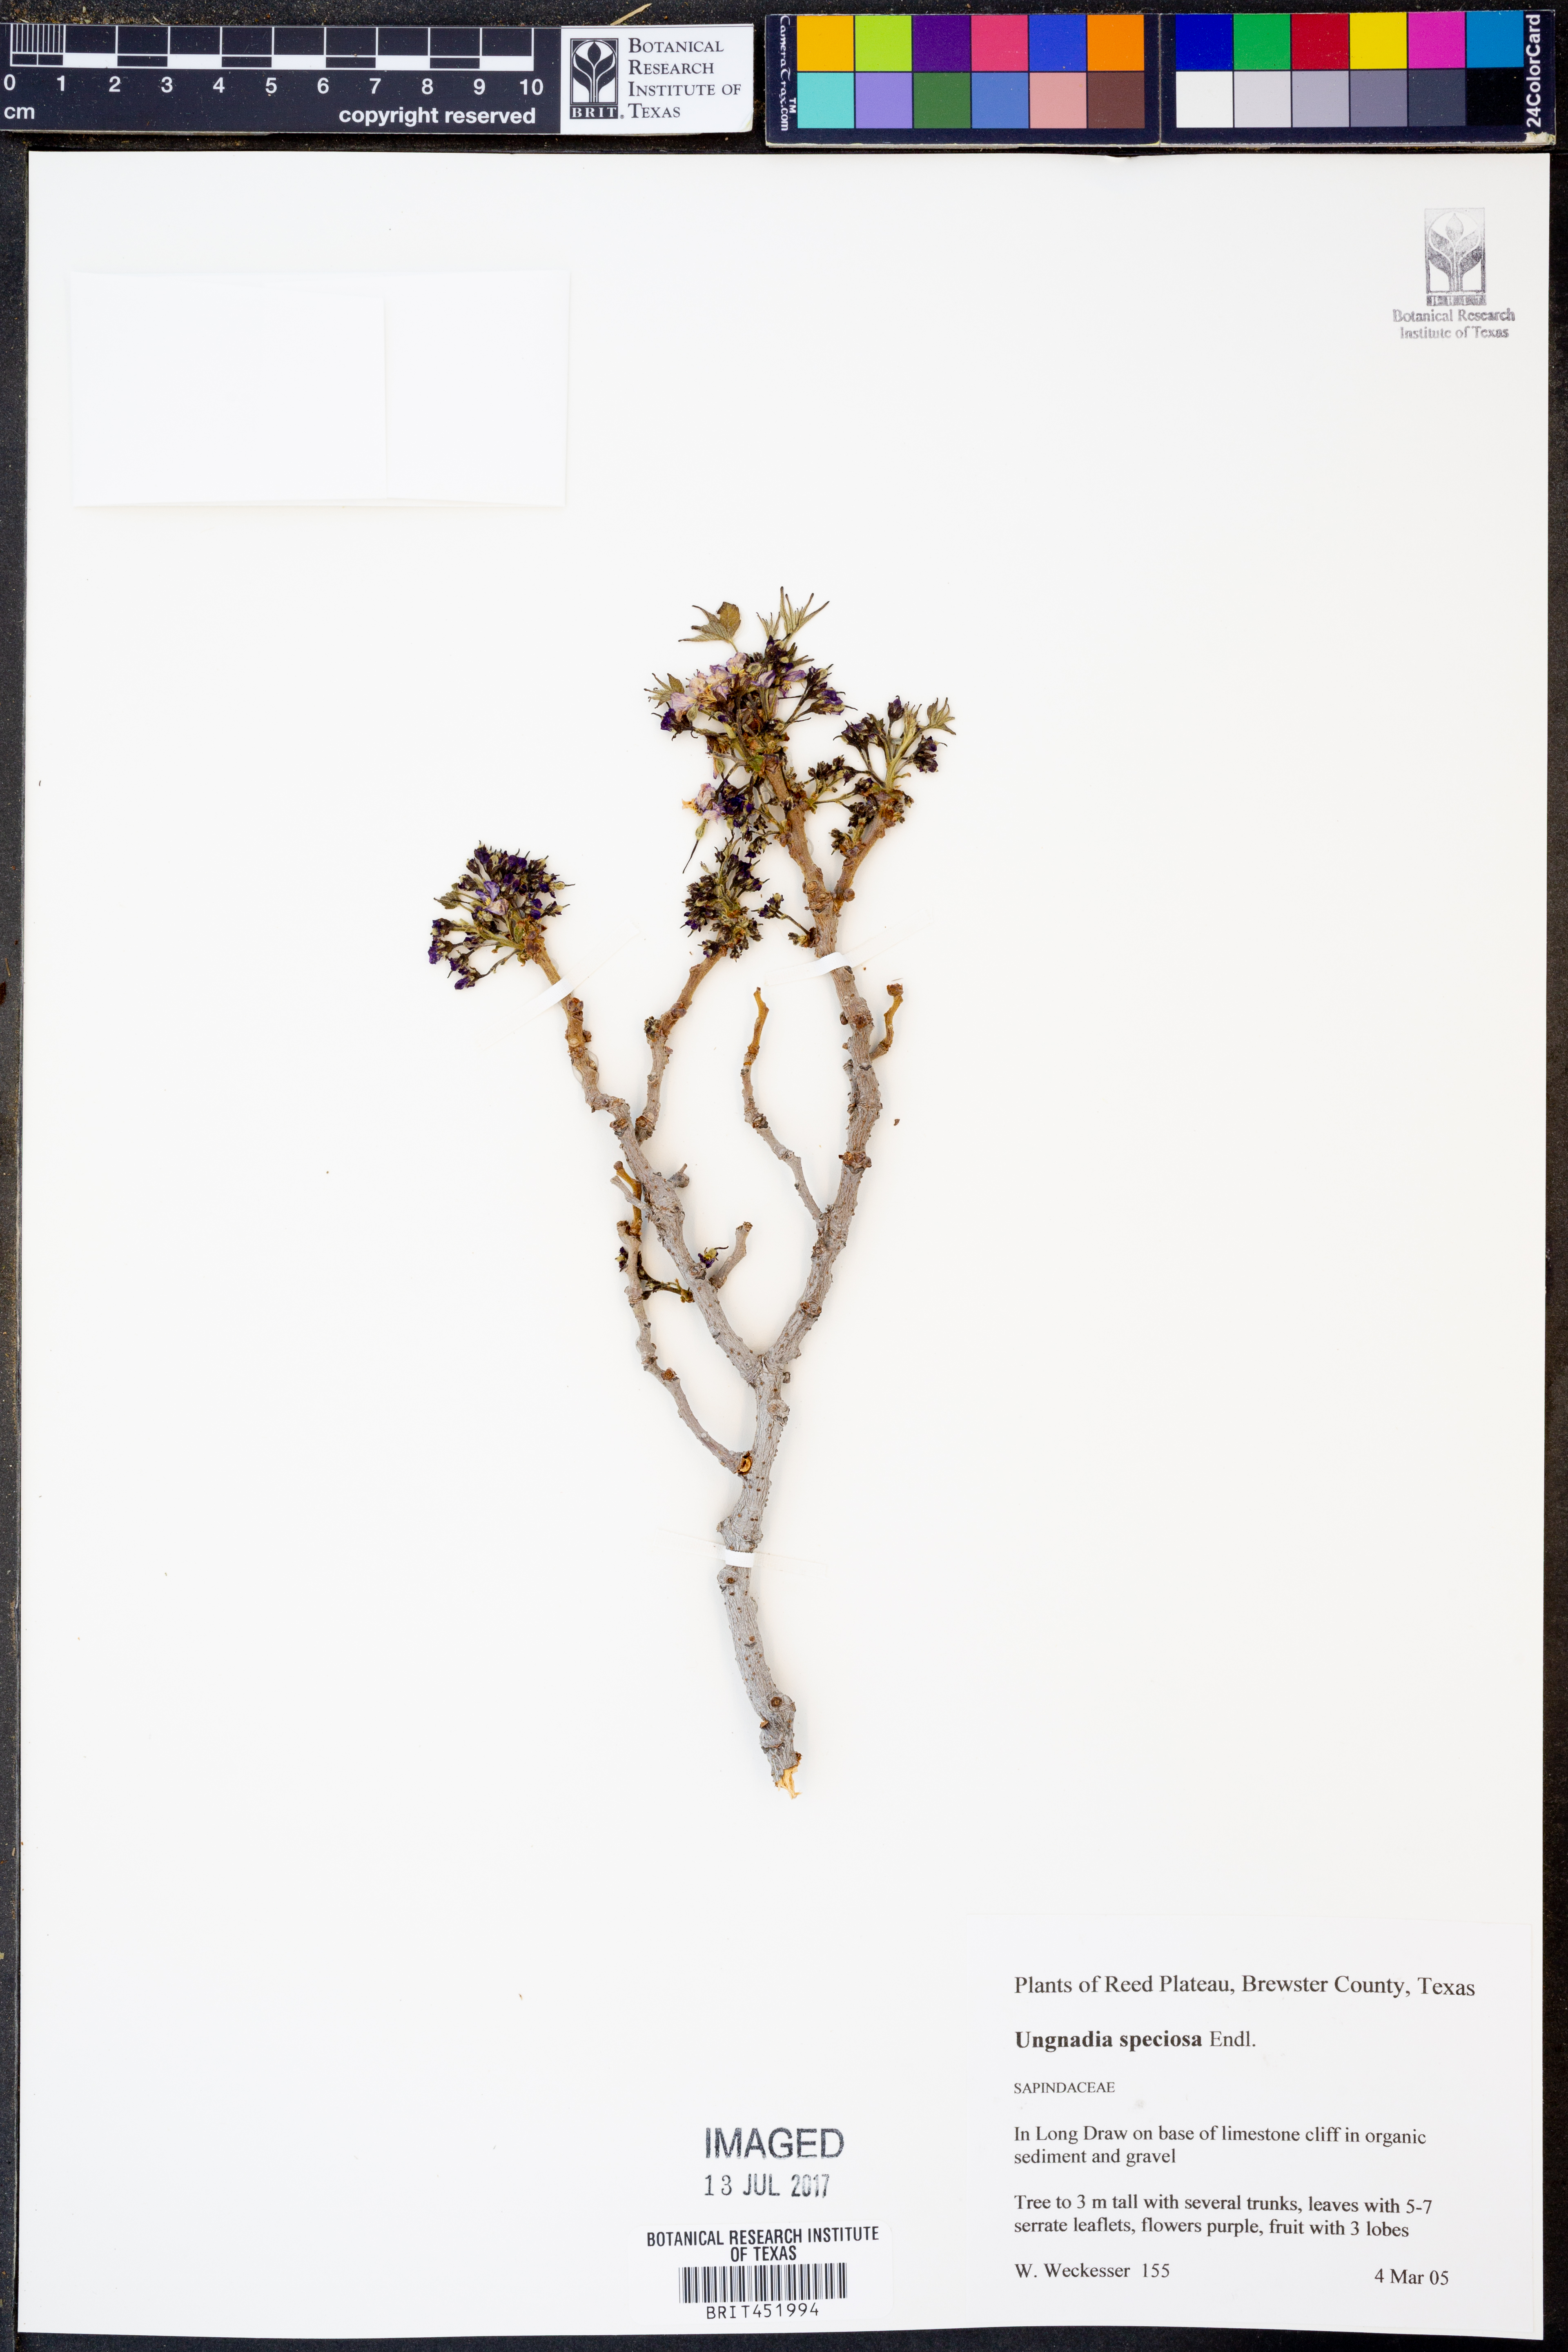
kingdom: Plantae
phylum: Tracheophyta
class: Magnoliopsida
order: Sapindales
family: Sapindaceae
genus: Ungnadia
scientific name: Ungnadia speciosa
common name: Texas-buckeye
